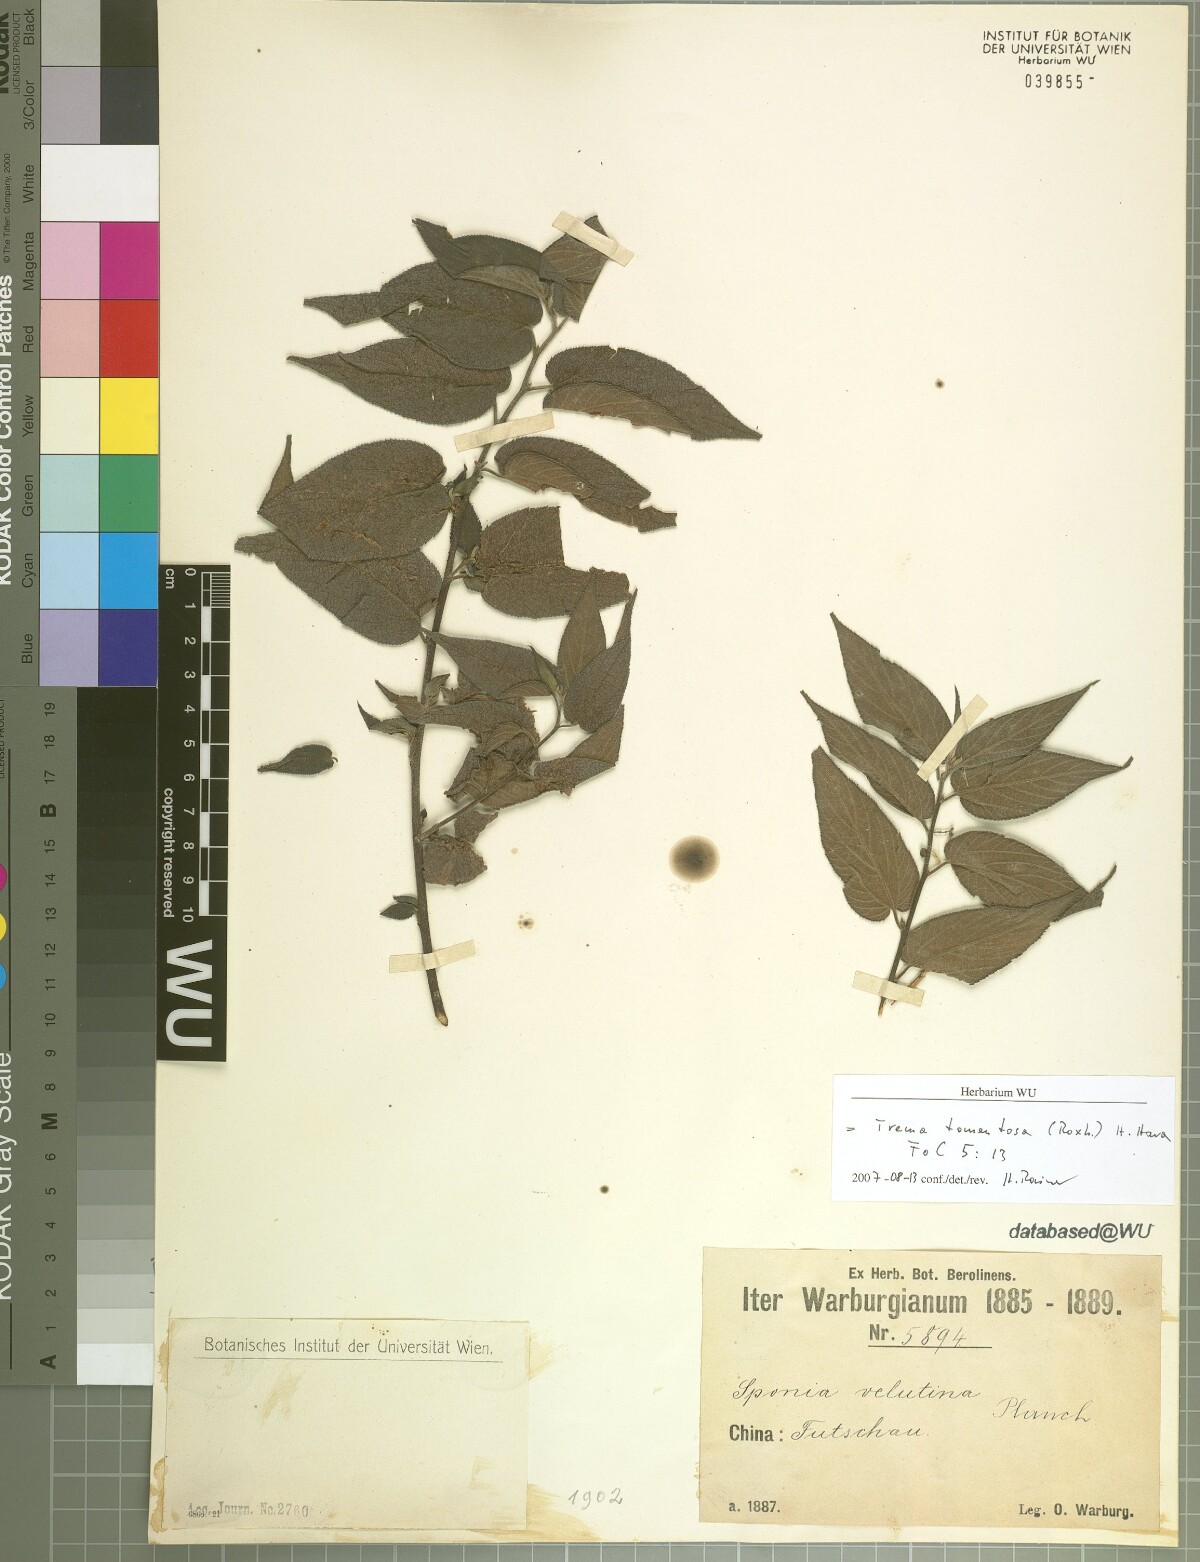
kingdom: Plantae
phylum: Tracheophyta
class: Magnoliopsida
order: Rosales
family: Cannabaceae
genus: Trema
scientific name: Trema tomentosum
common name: Peach-leaf-poisonbush
